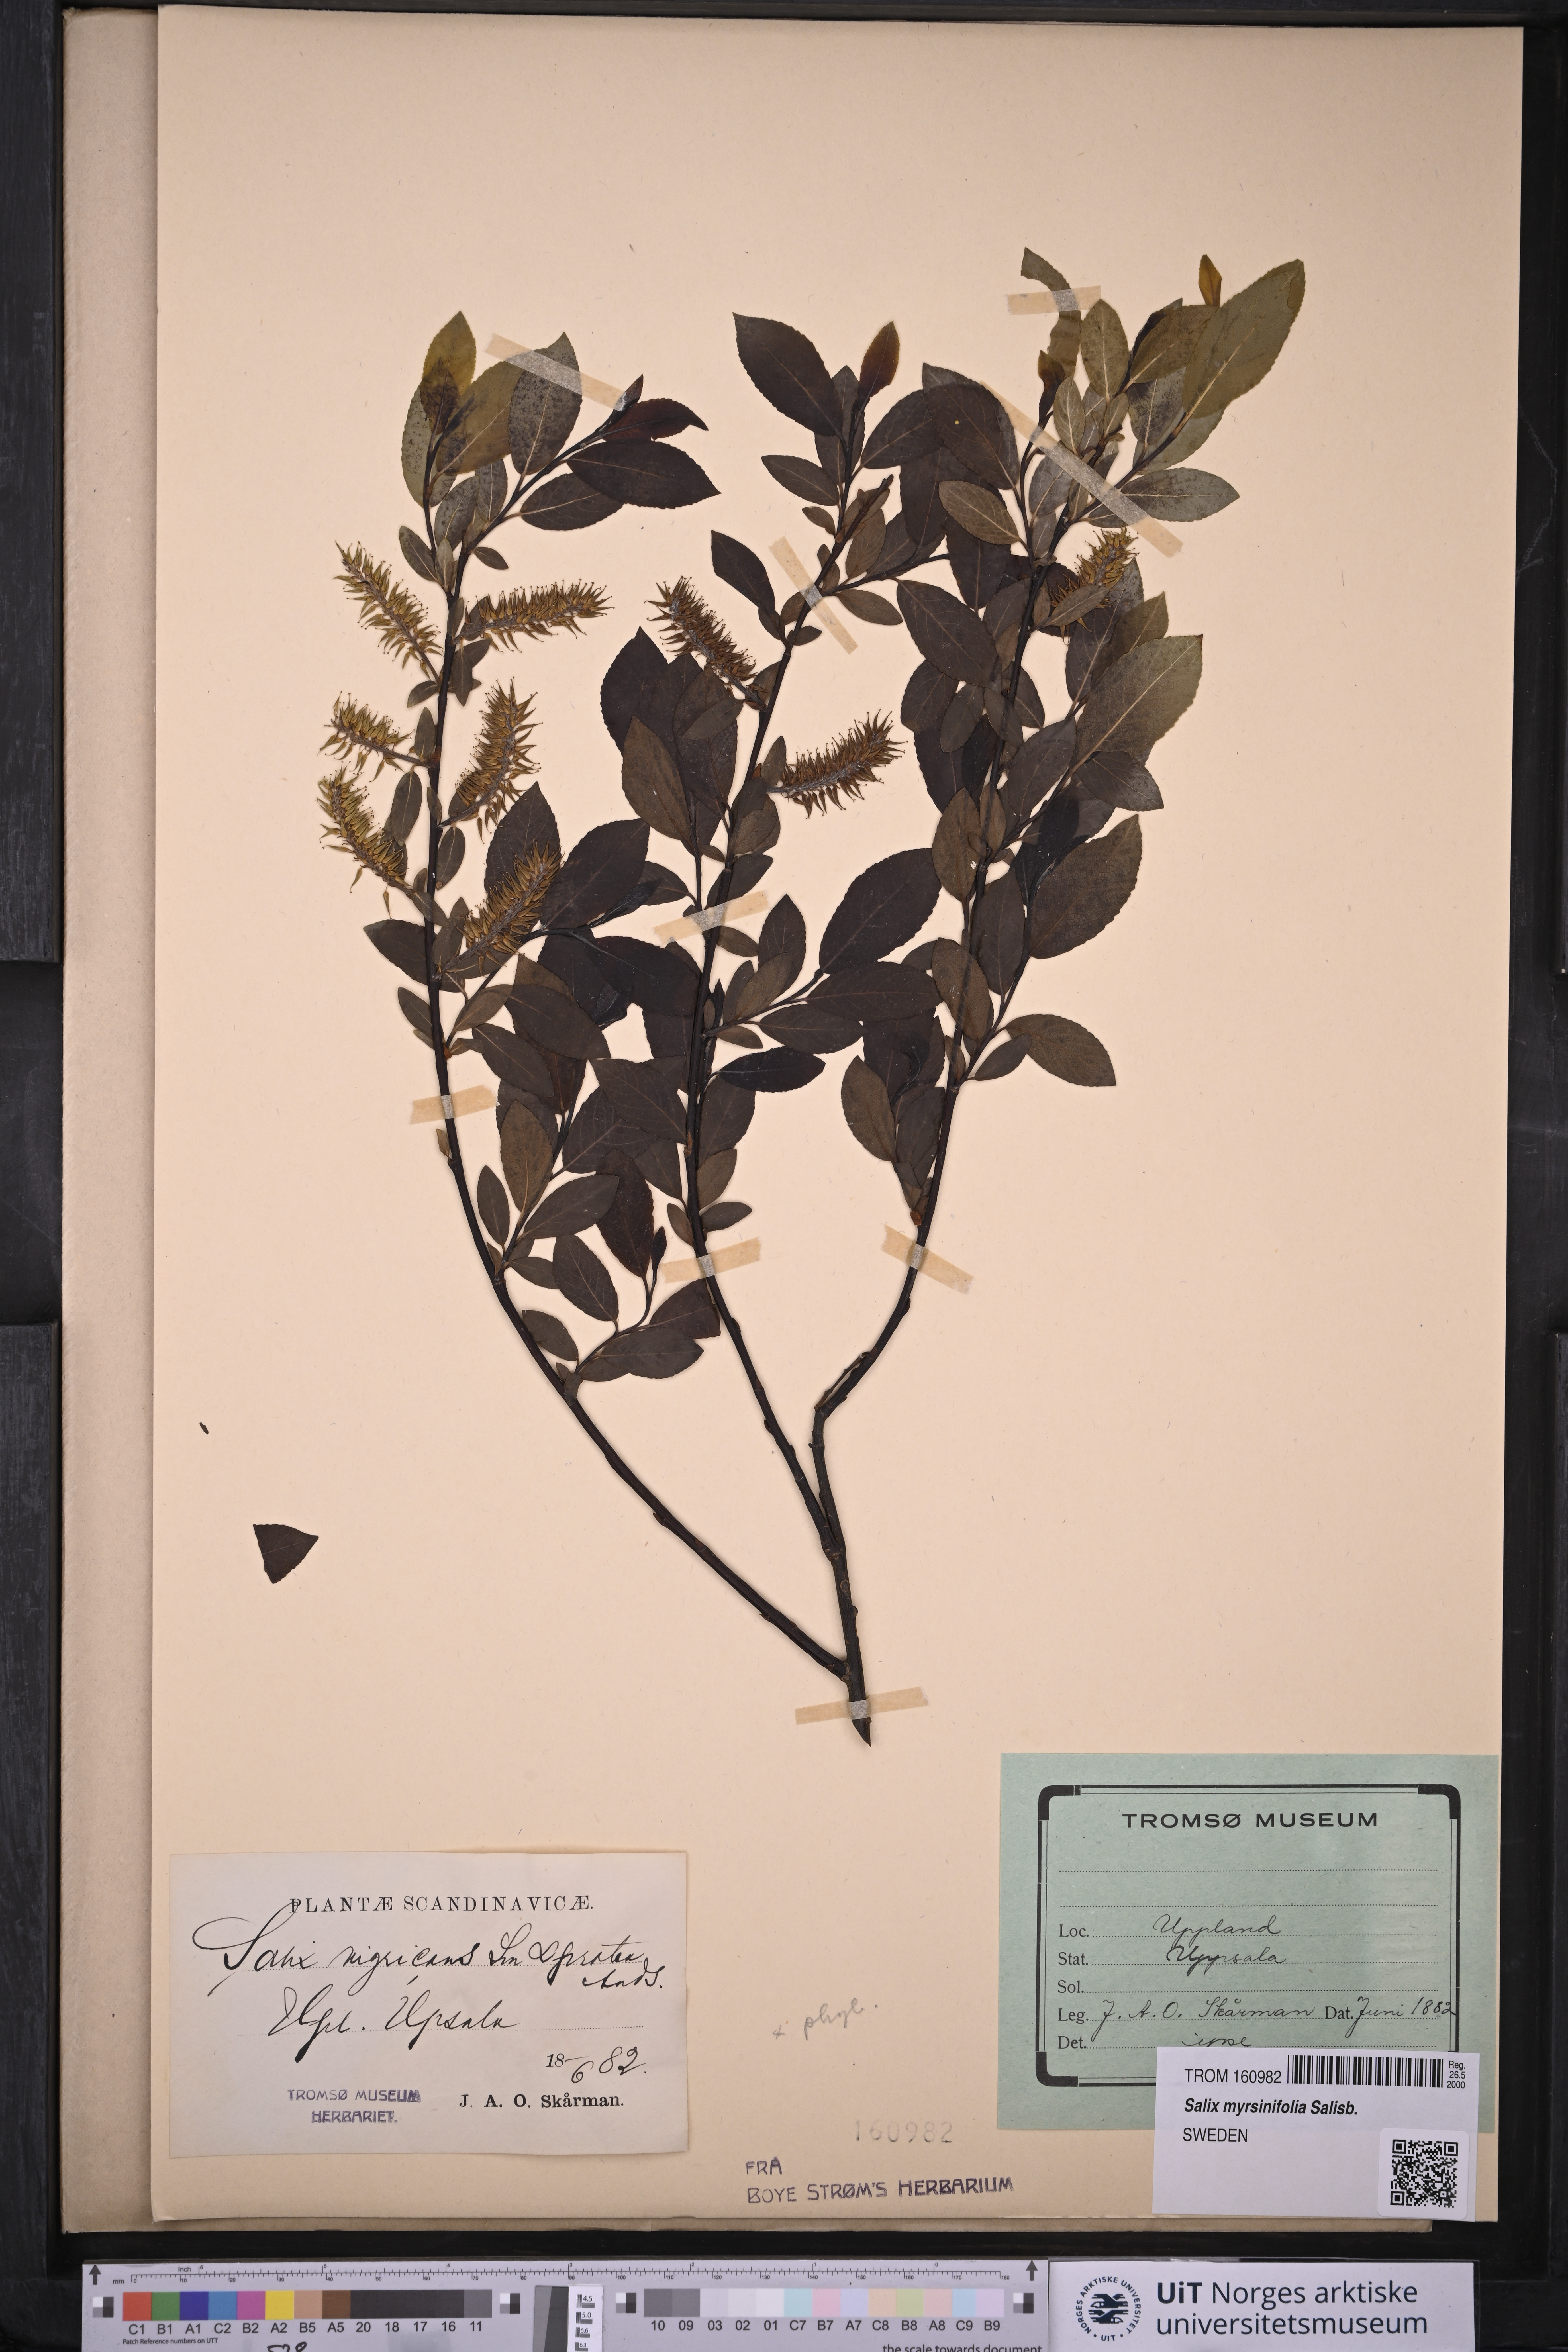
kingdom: Plantae
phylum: Tracheophyta
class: Magnoliopsida
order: Malpighiales
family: Salicaceae
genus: Salix
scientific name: Salix myrsinifolia
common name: Dark-leaved willow
